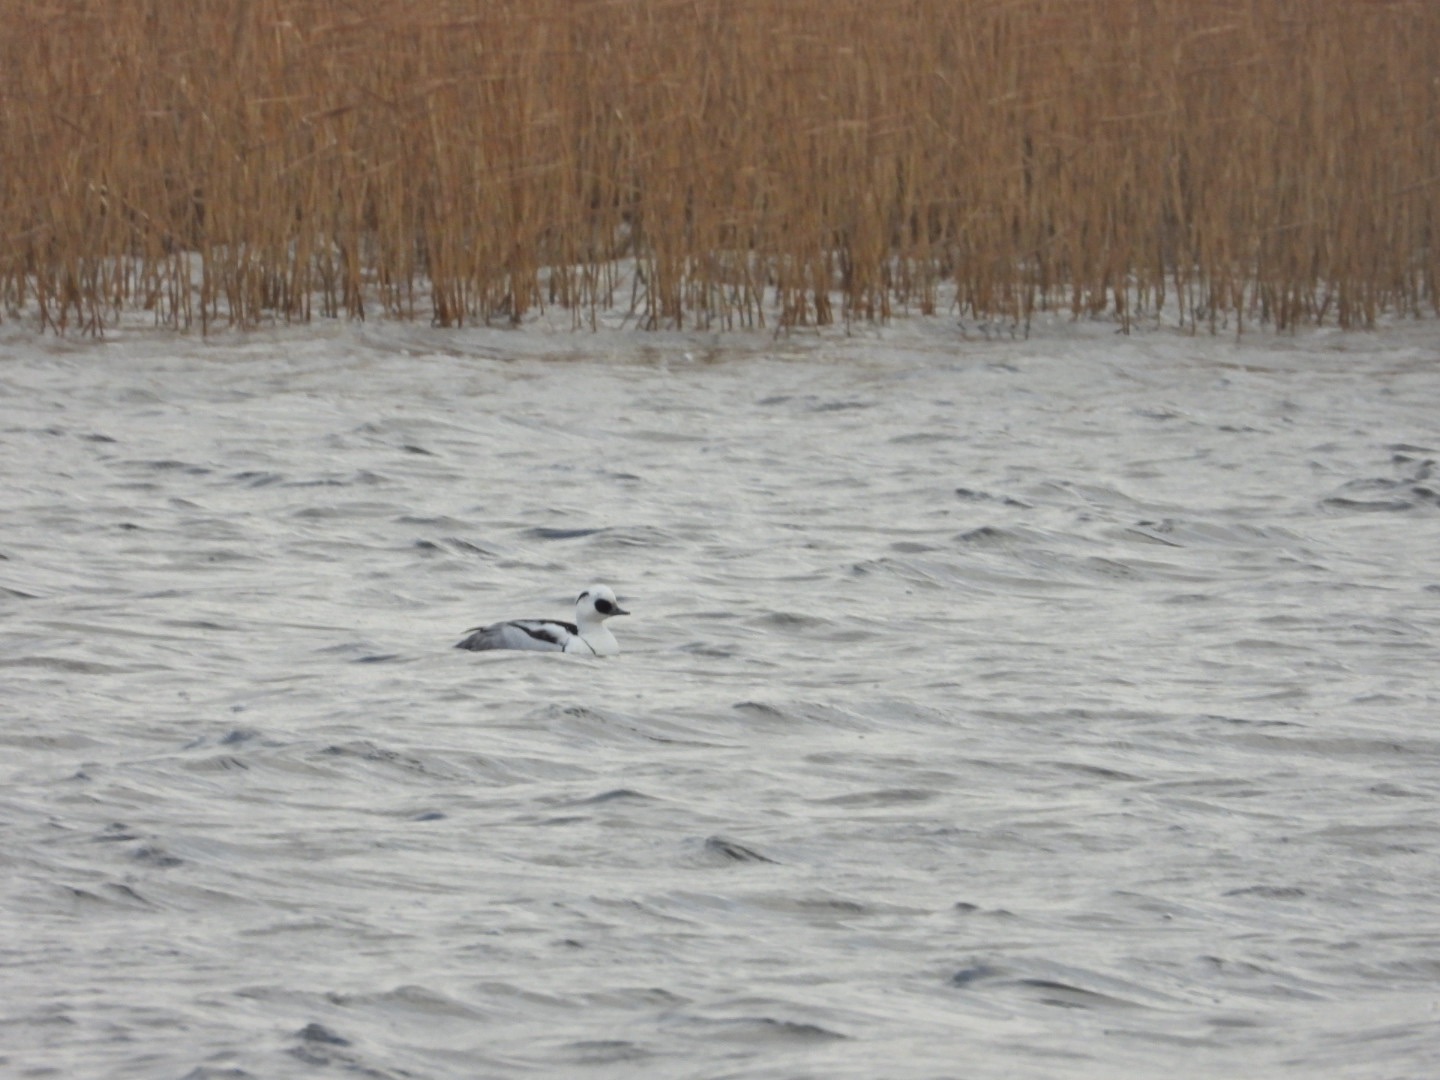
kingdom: Animalia
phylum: Chordata
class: Aves
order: Anseriformes
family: Anatidae
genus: Mergellus
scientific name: Mergellus albellus
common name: Lille skallesluger
